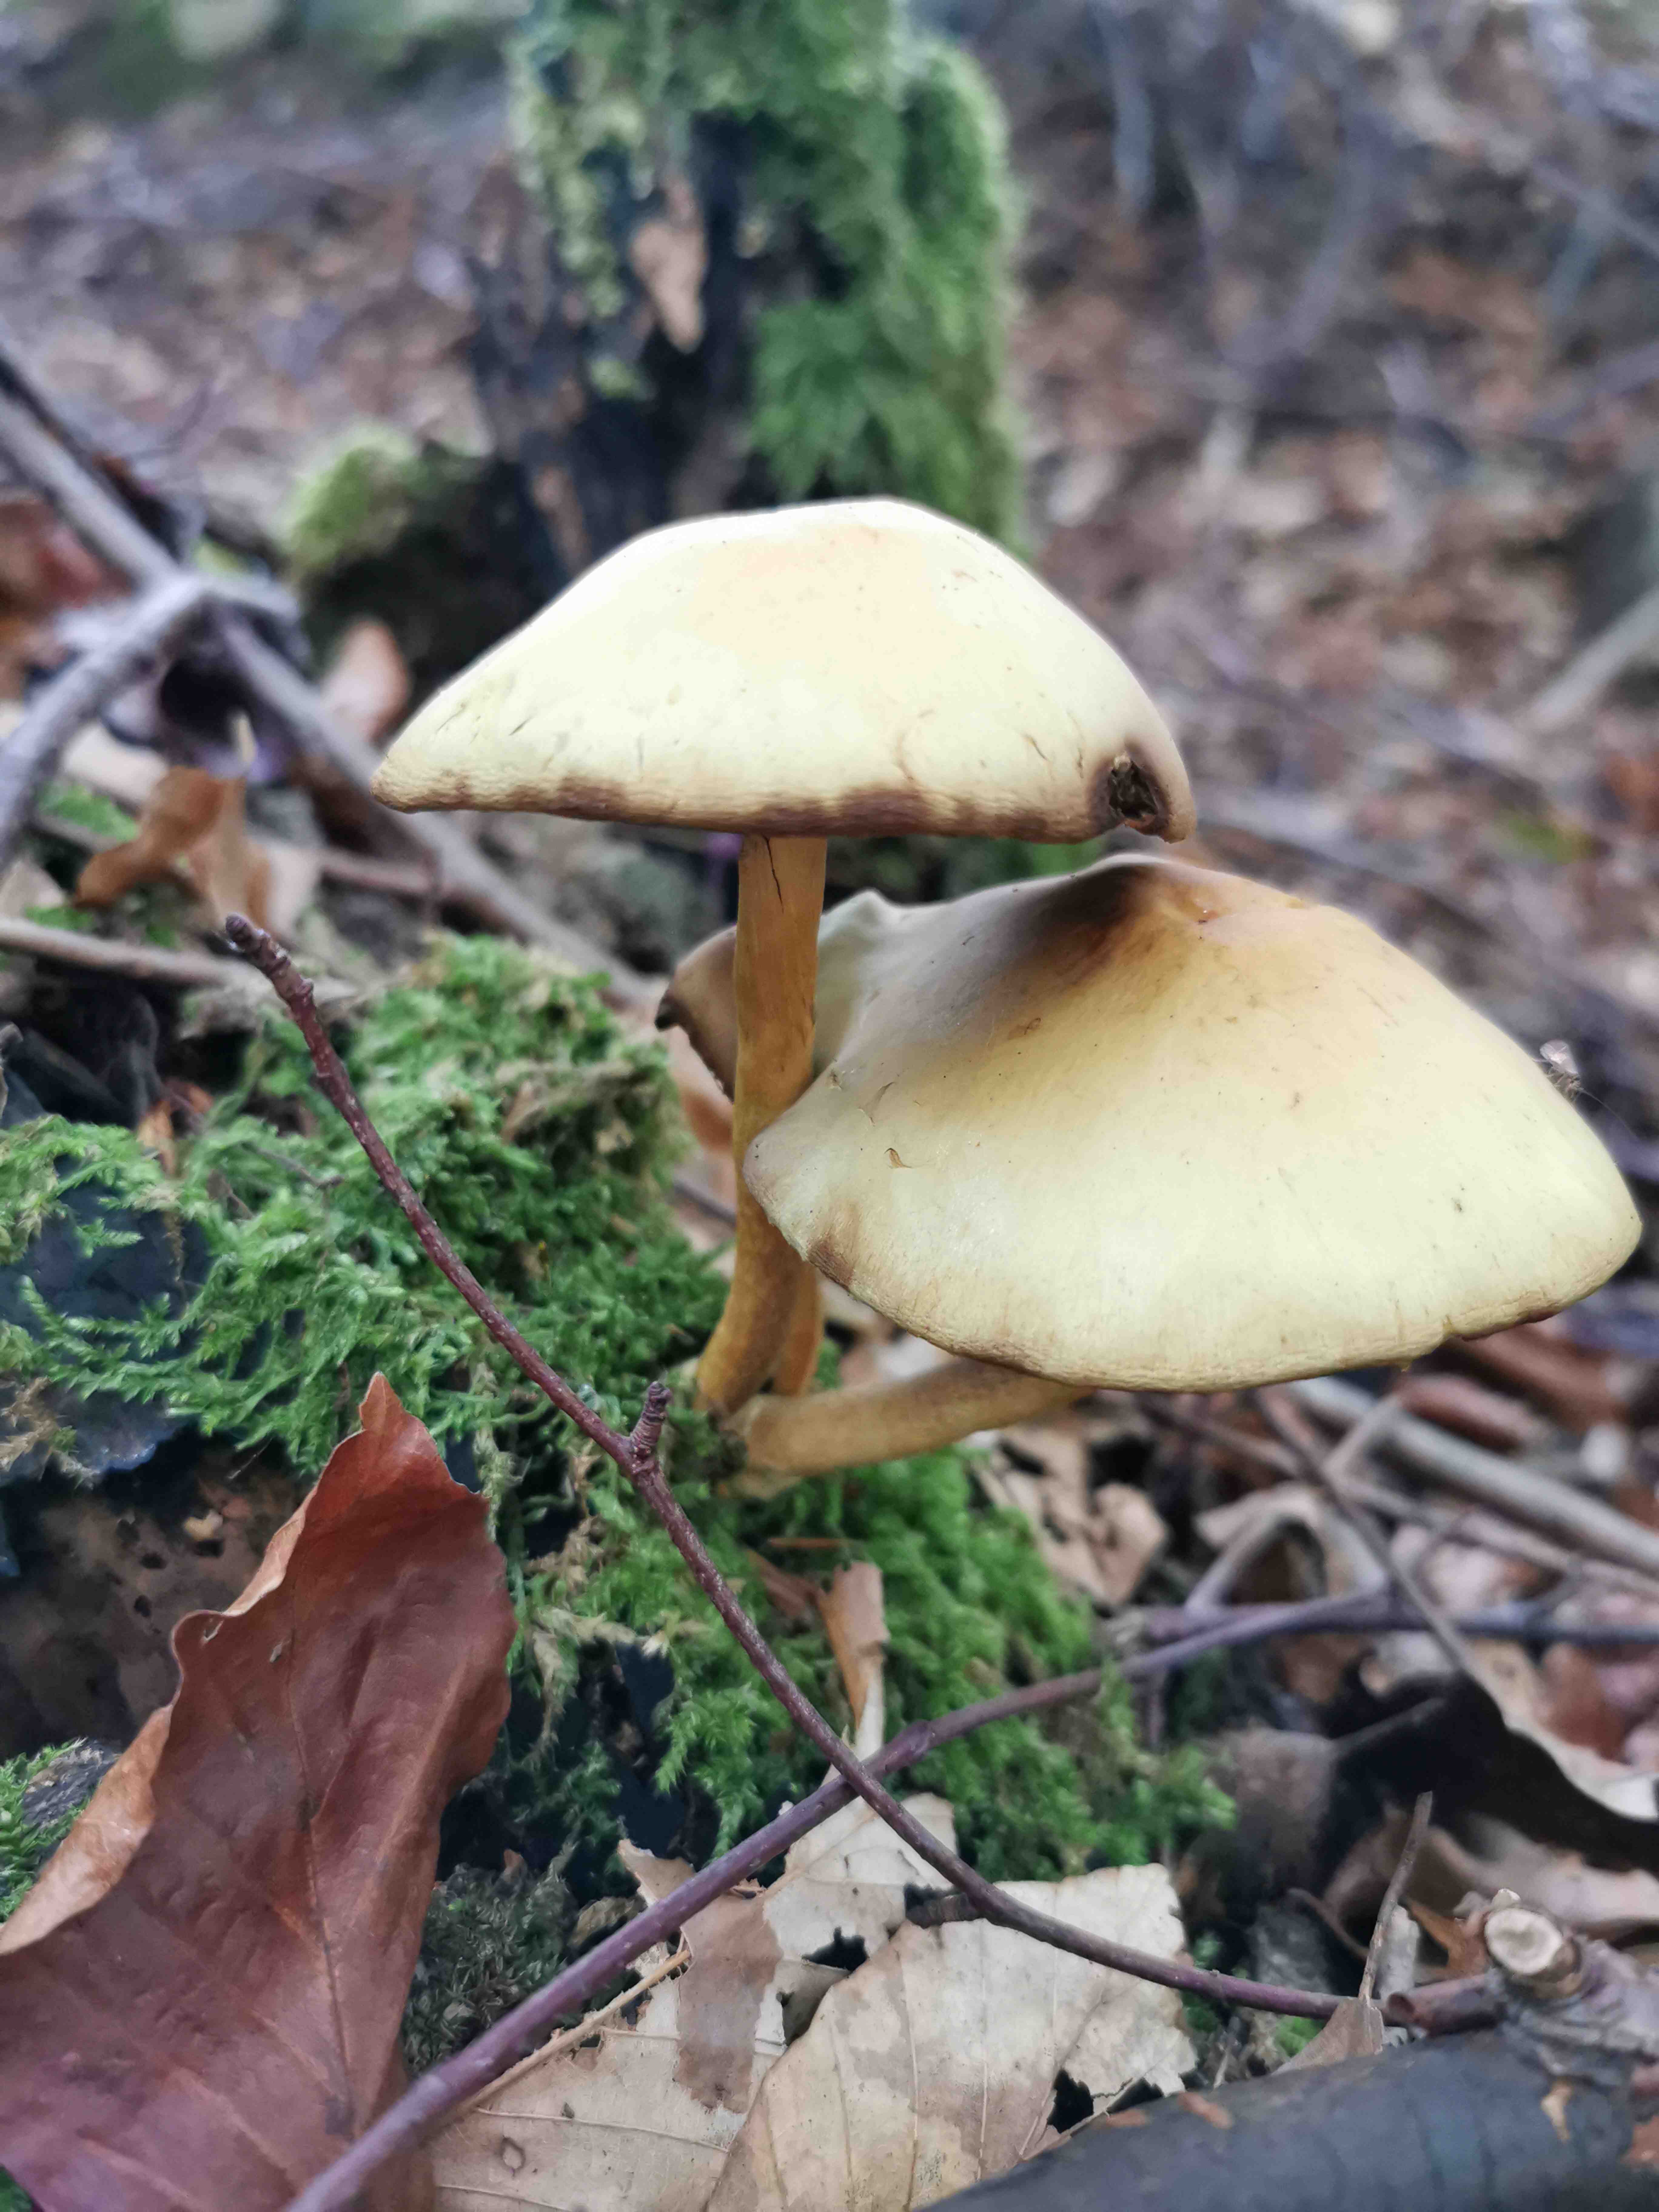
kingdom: Fungi
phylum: Basidiomycota
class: Agaricomycetes
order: Agaricales
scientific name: Agaricales
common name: champignonordenen
